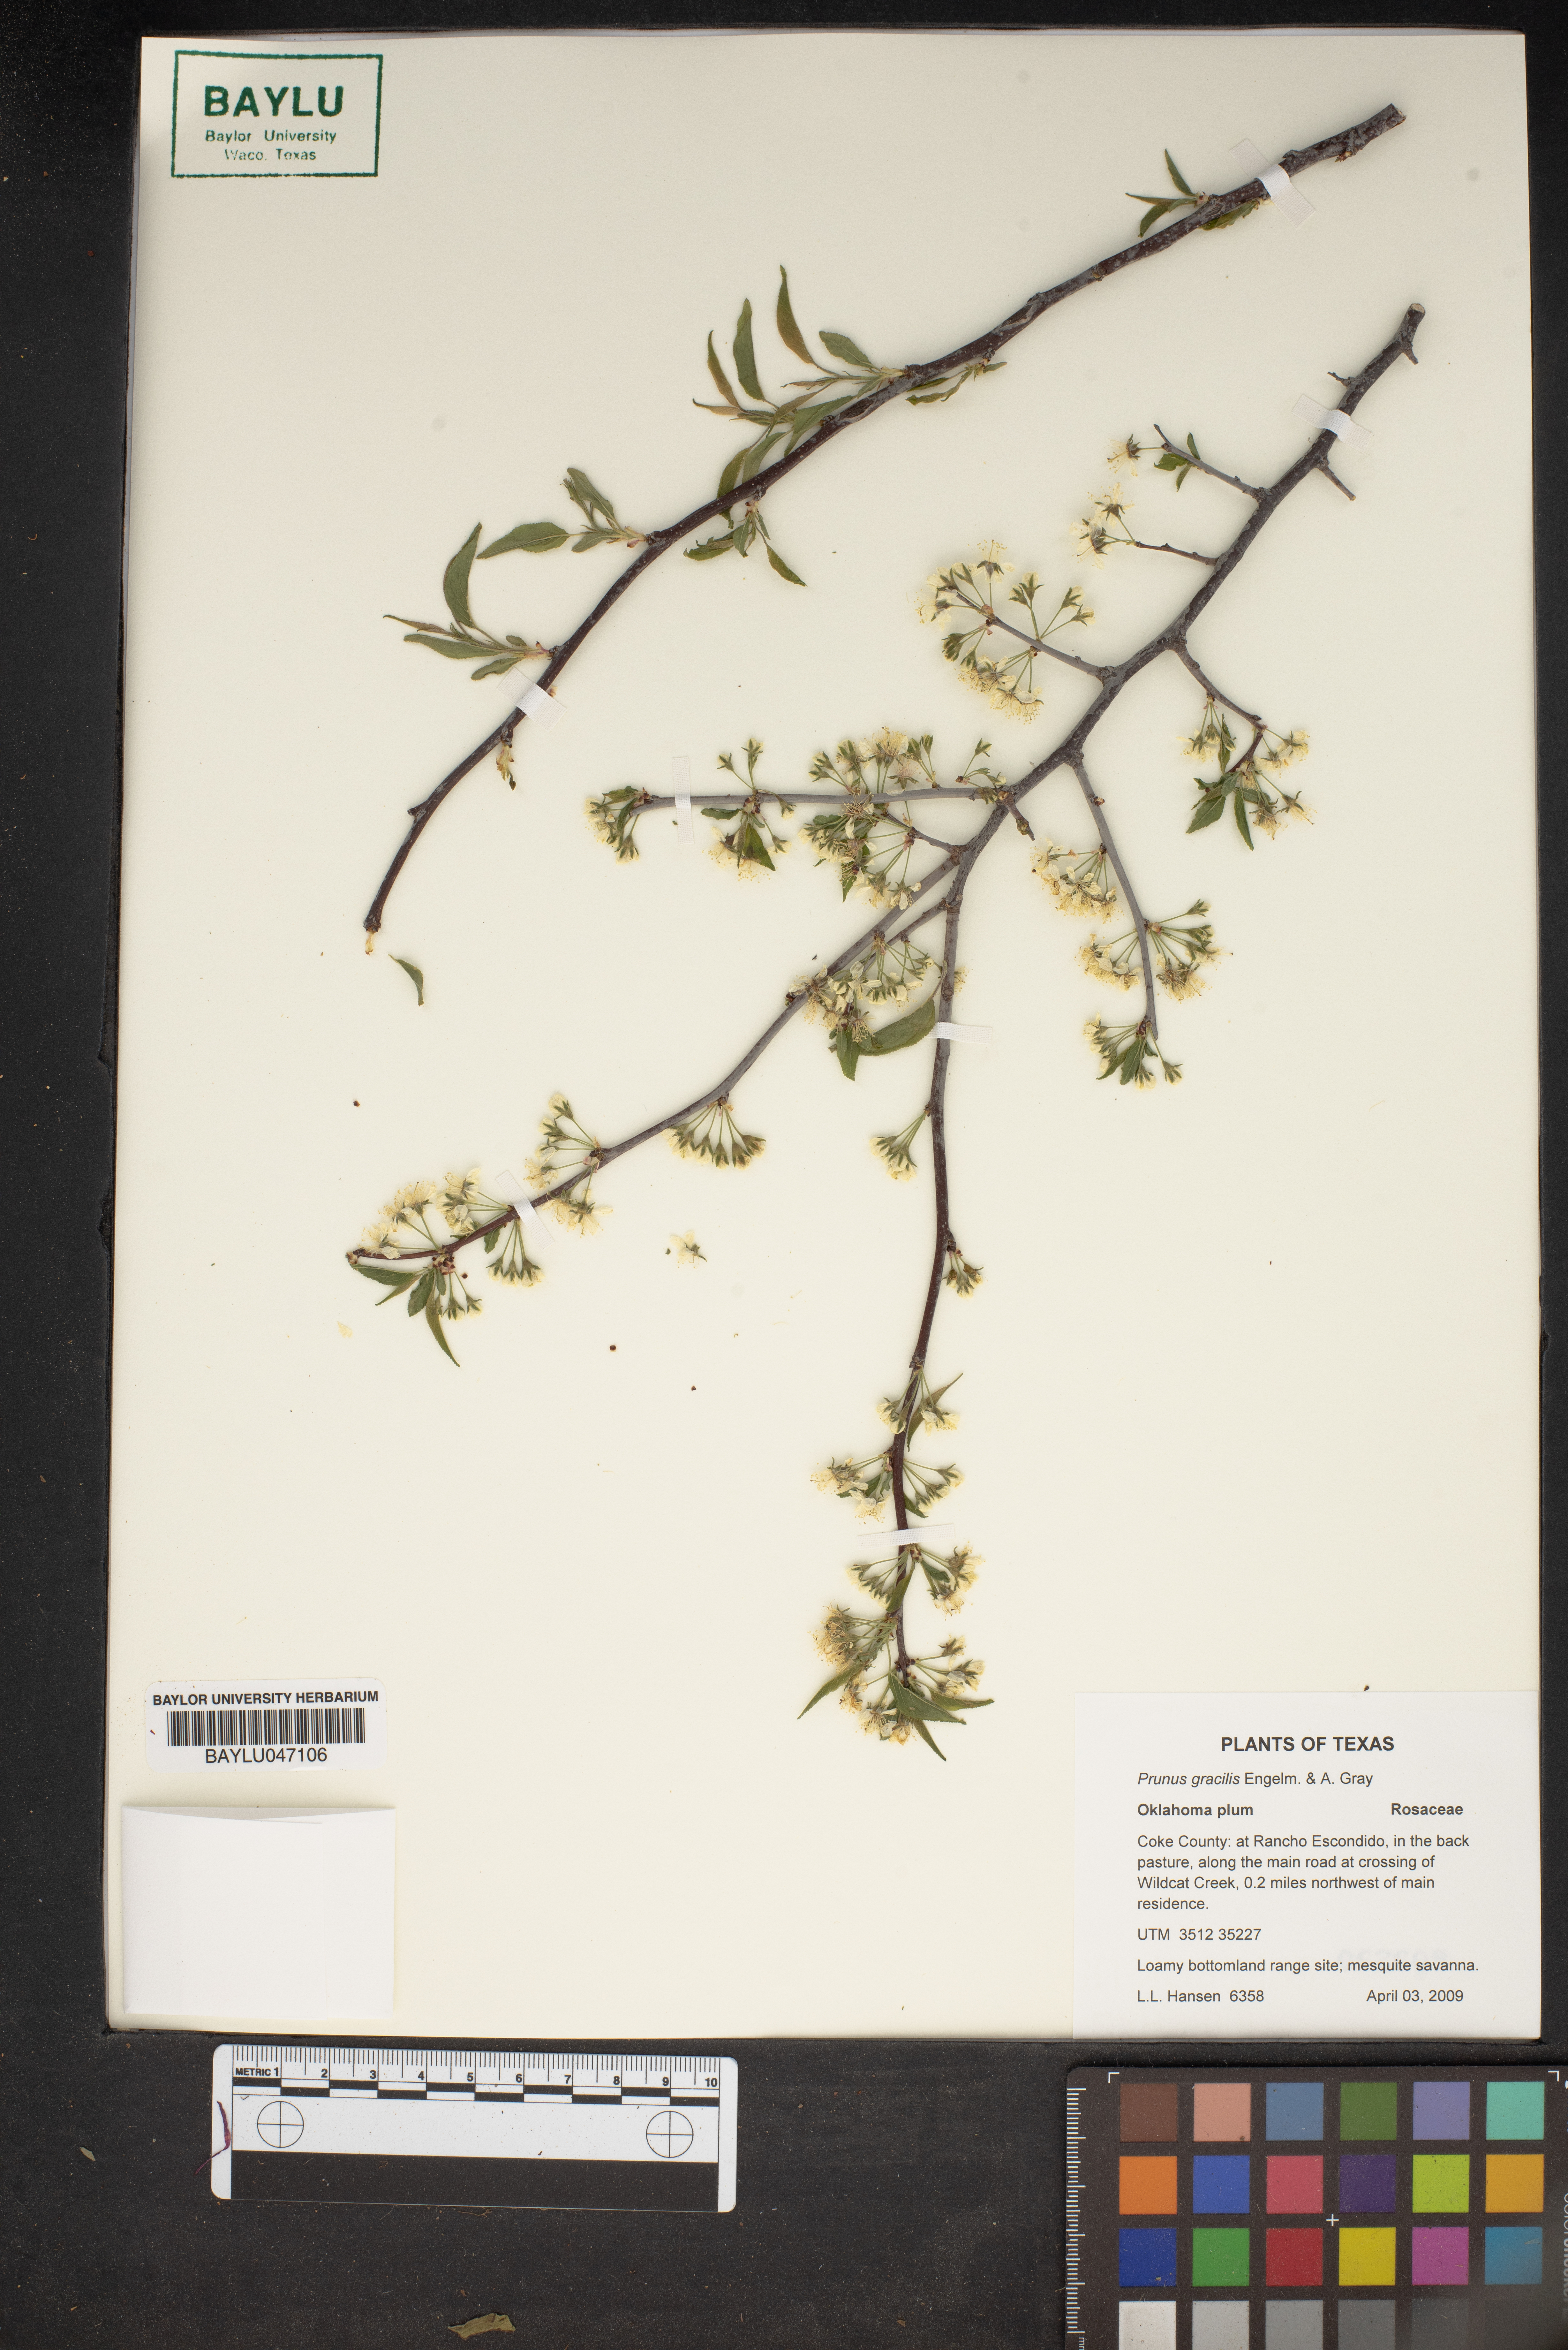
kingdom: Plantae
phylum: Tracheophyta
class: Magnoliopsida
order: Rosales
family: Rosaceae
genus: Prunus
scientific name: Prunus gracilis
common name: Oklahoma plum
